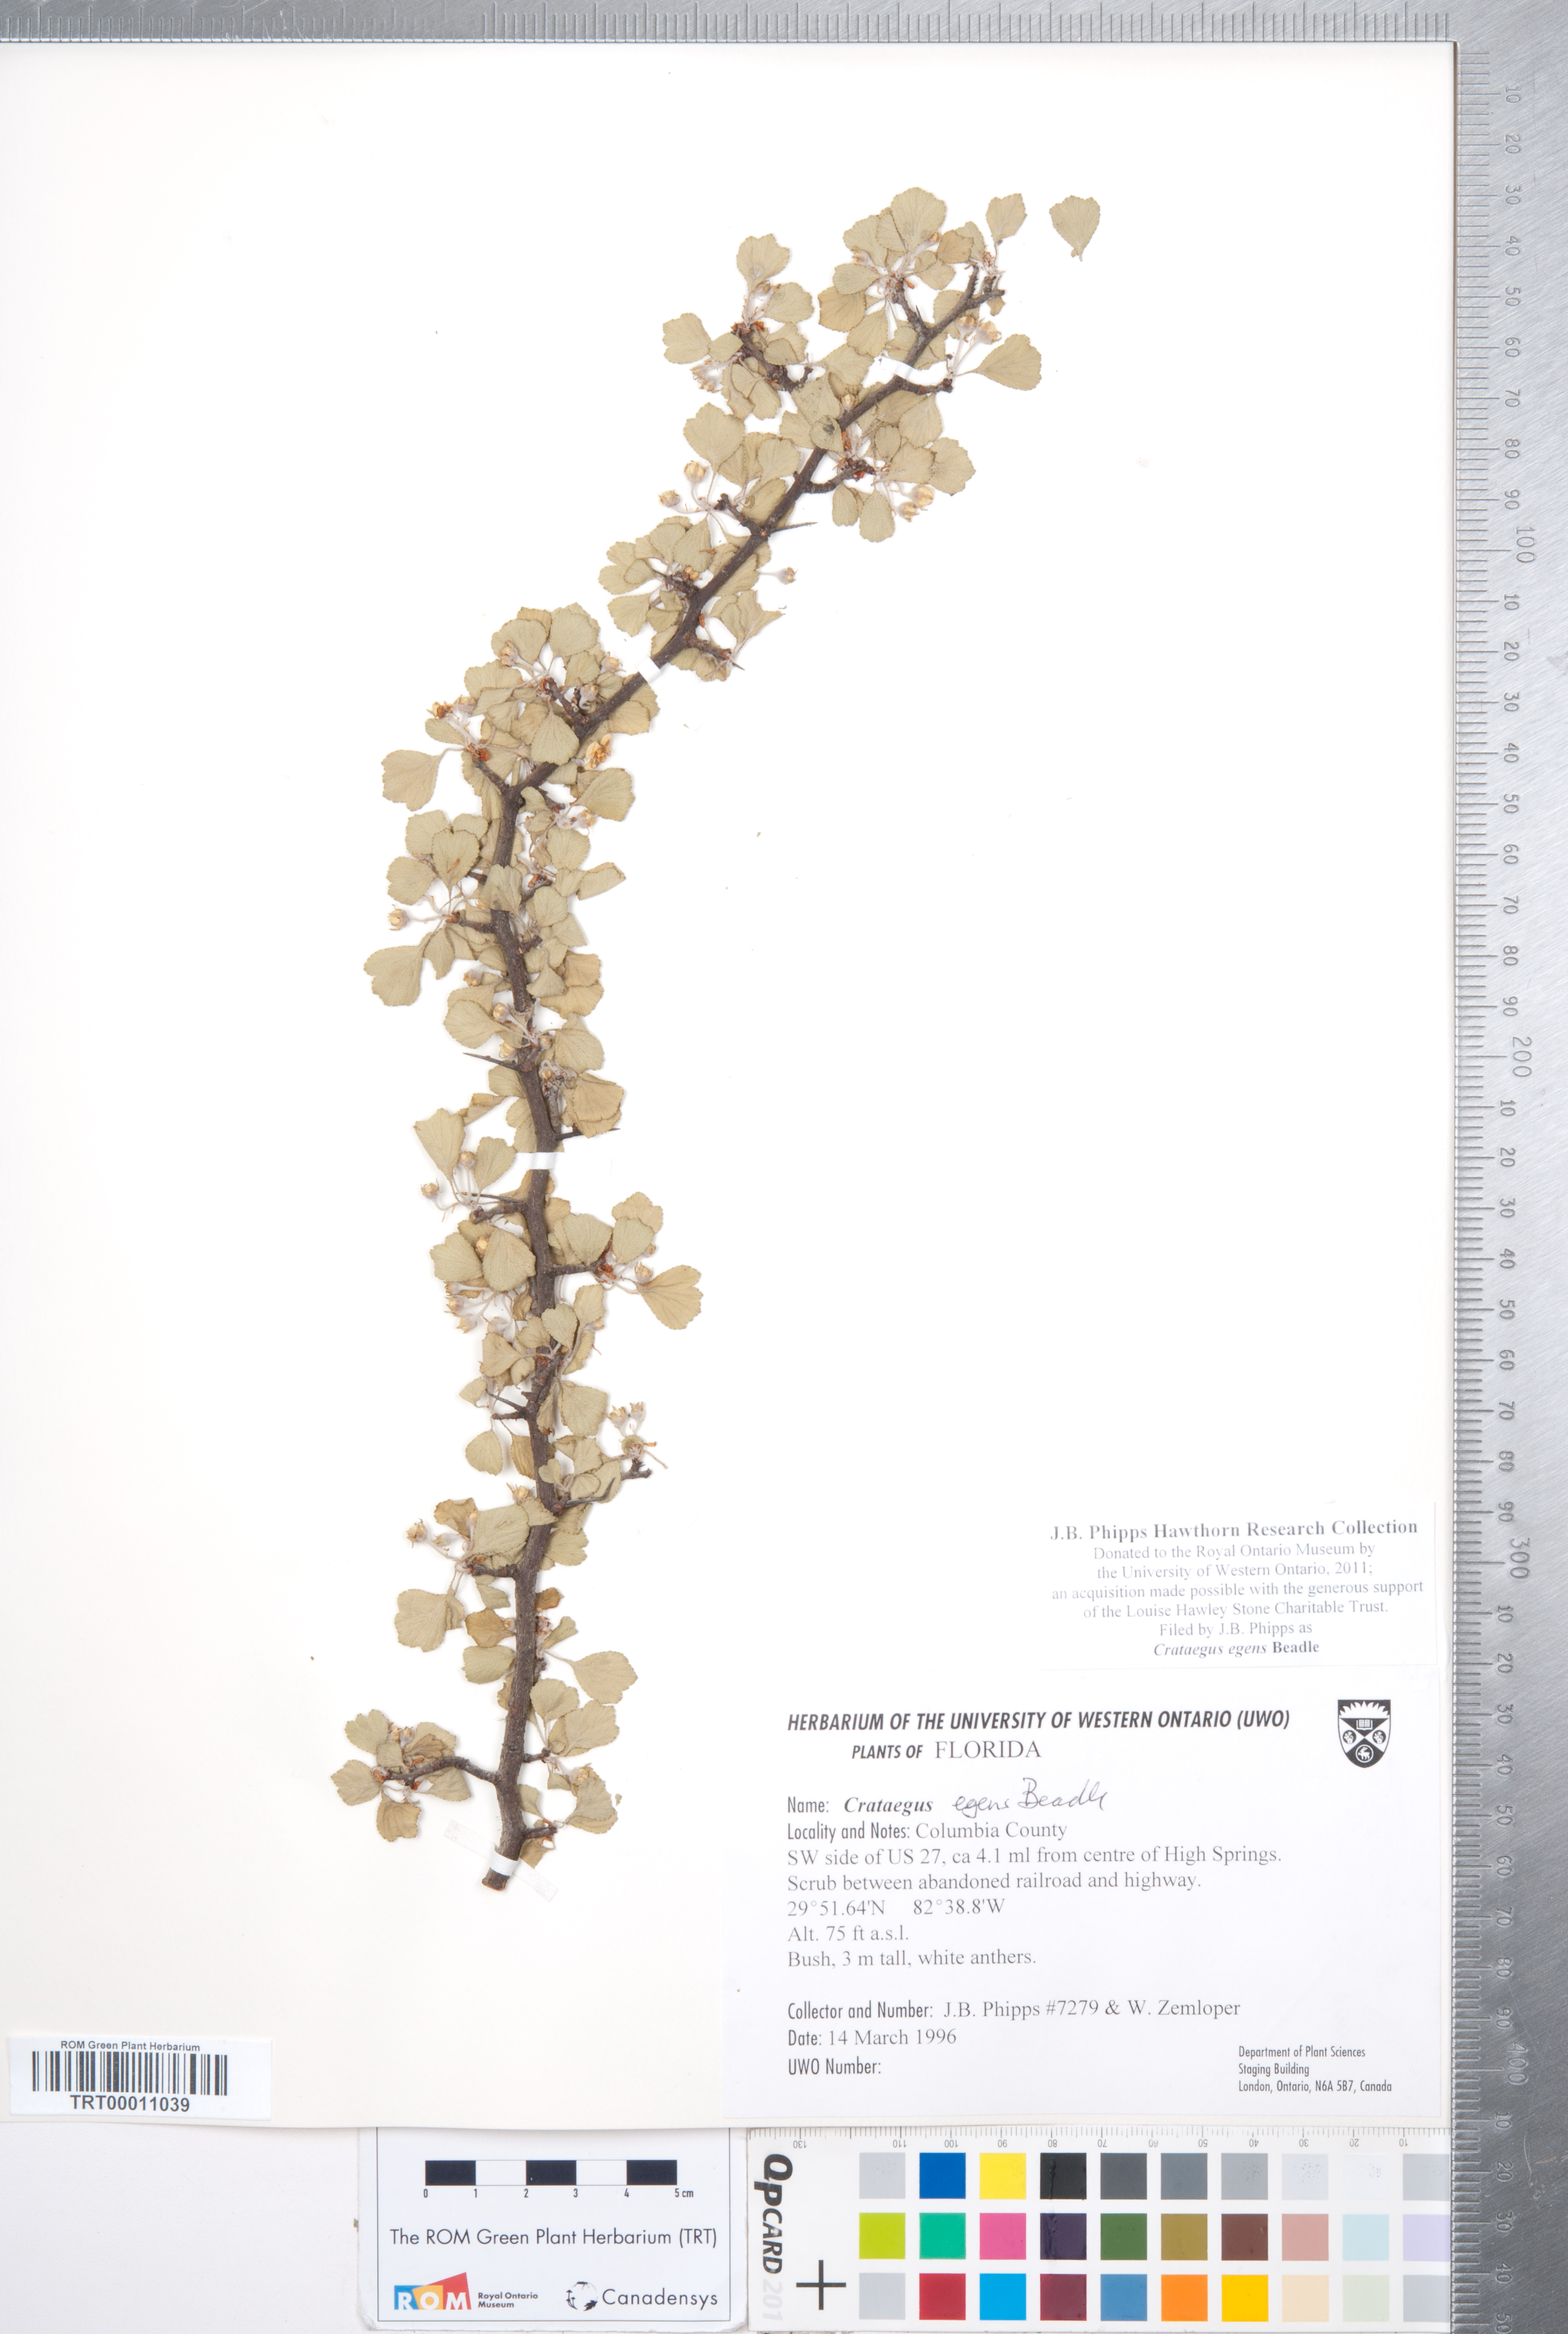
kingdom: Plantae
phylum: Tracheophyta
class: Magnoliopsida
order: Rosales
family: Rosaceae
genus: Crataegus
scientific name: Crataegus senta
